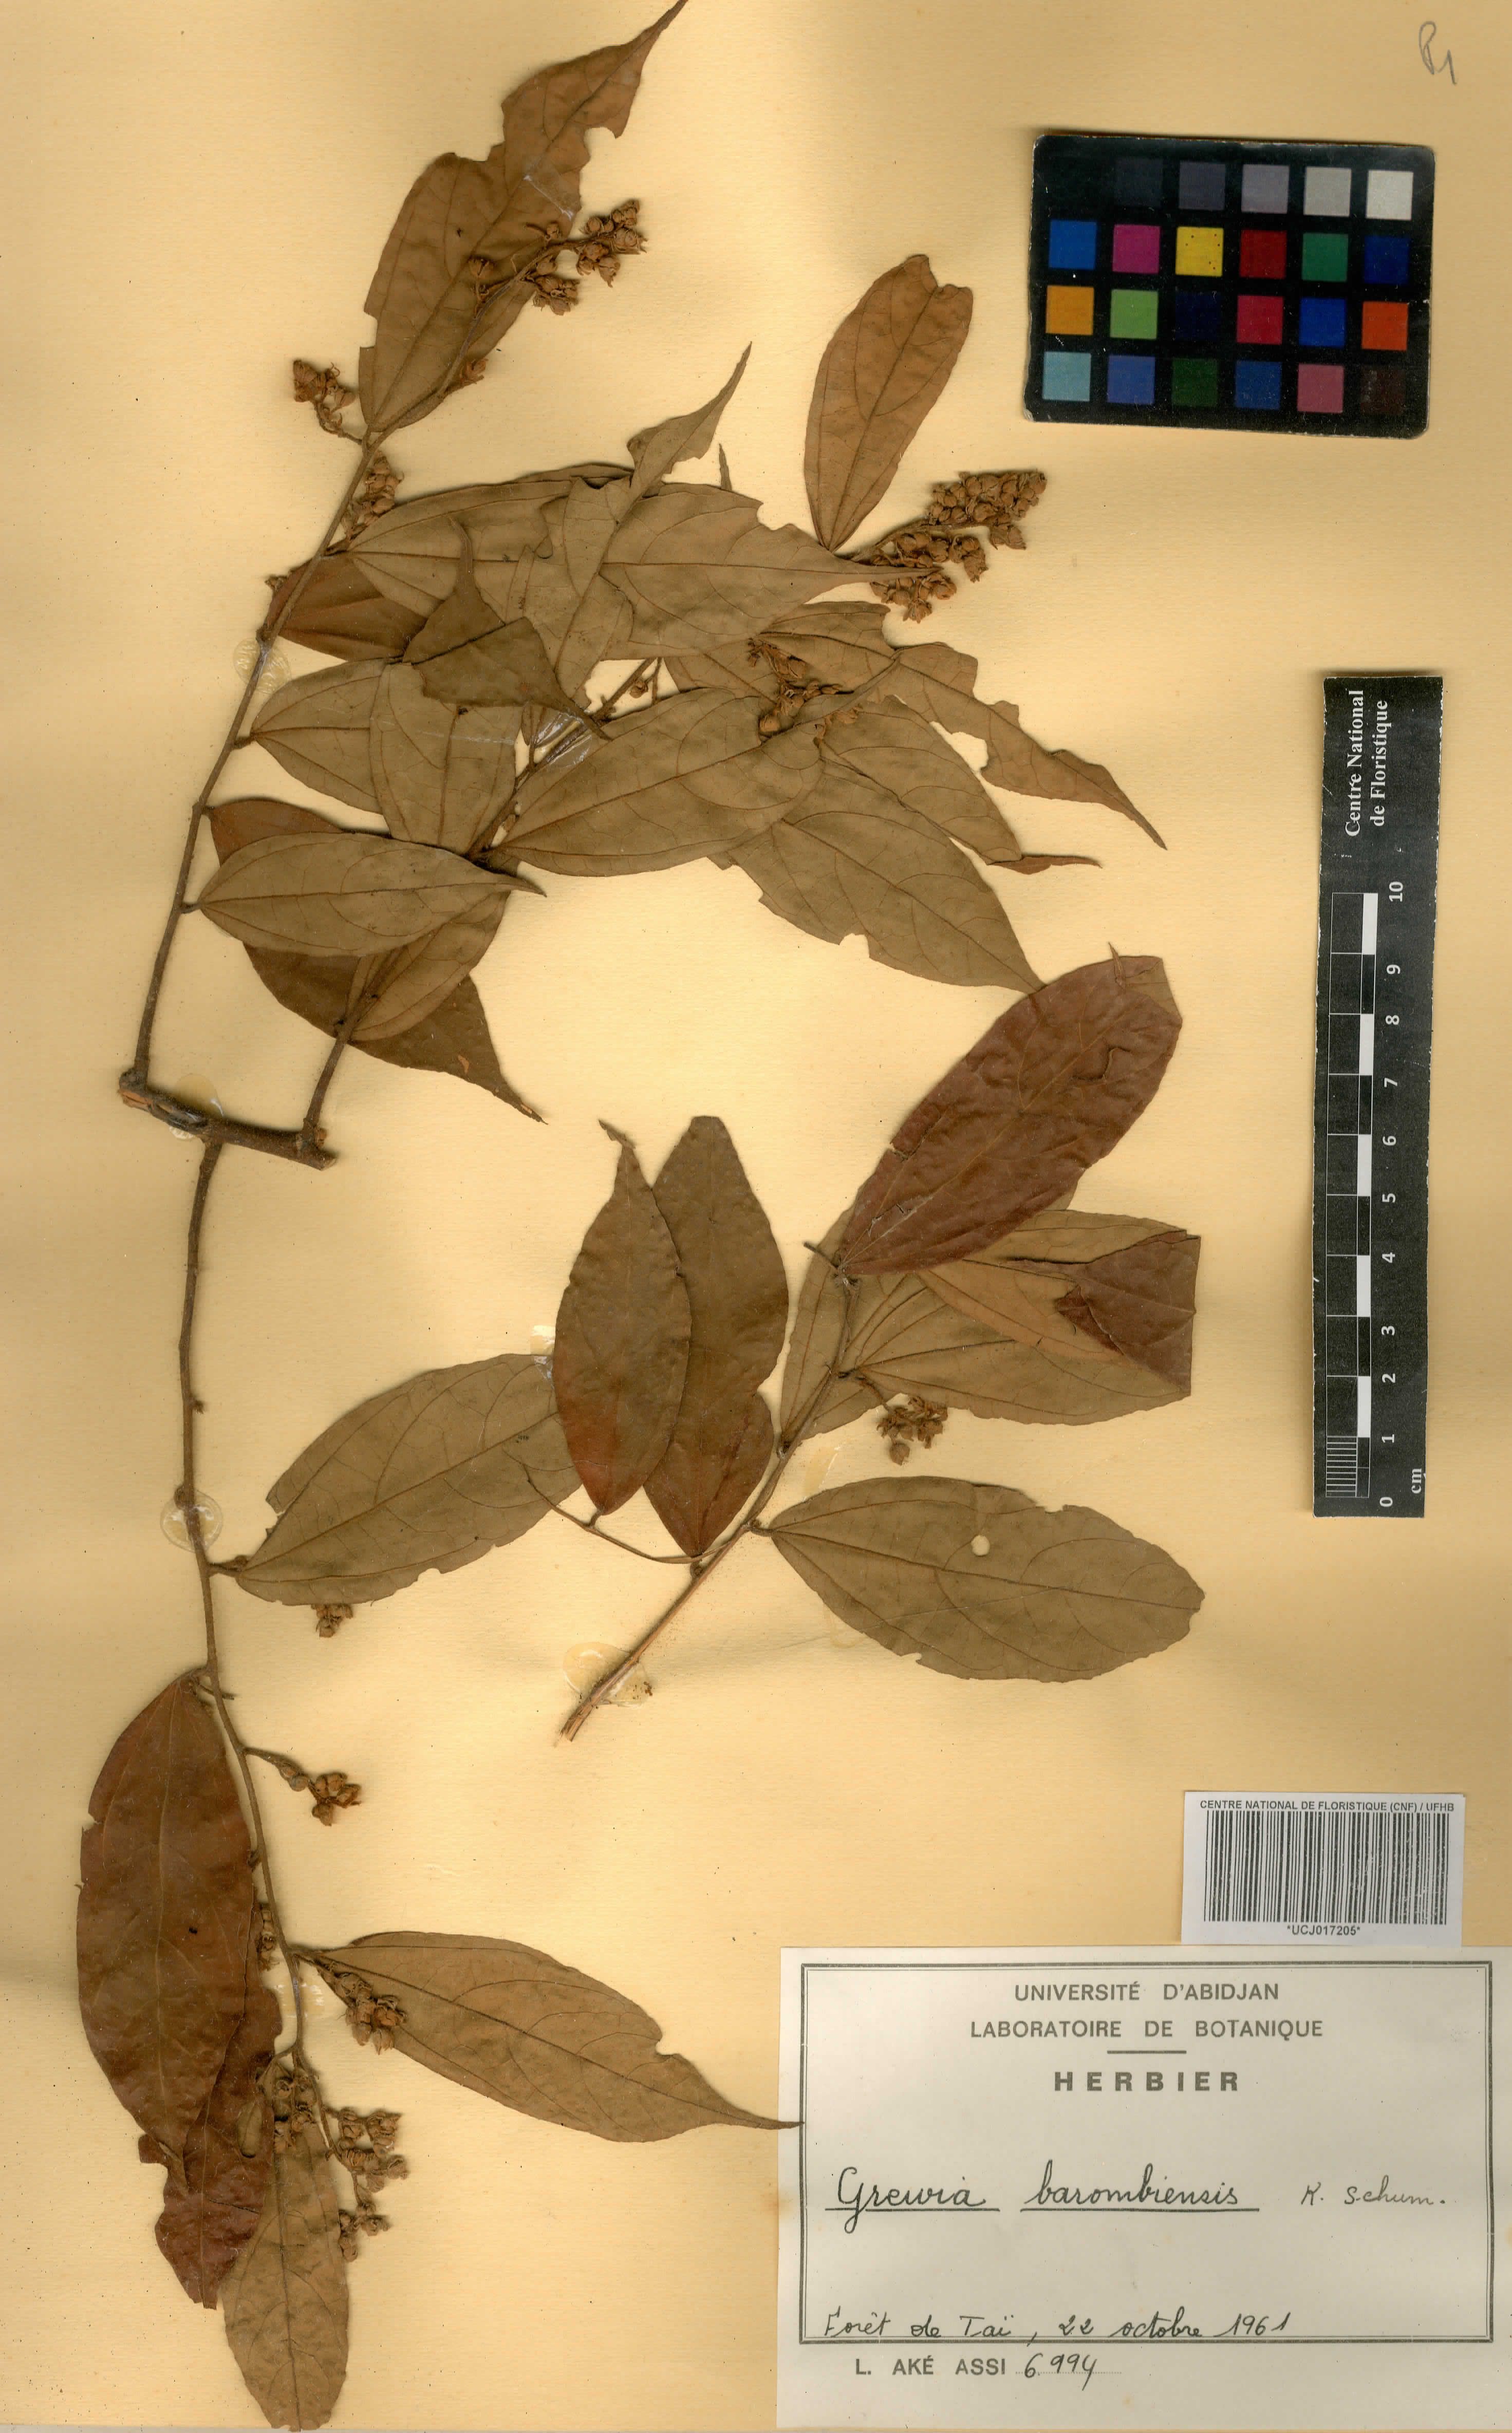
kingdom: Plantae
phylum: Tracheophyta
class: Magnoliopsida
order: Malvales
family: Malvaceae
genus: Microcos
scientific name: Microcos barombiensis
